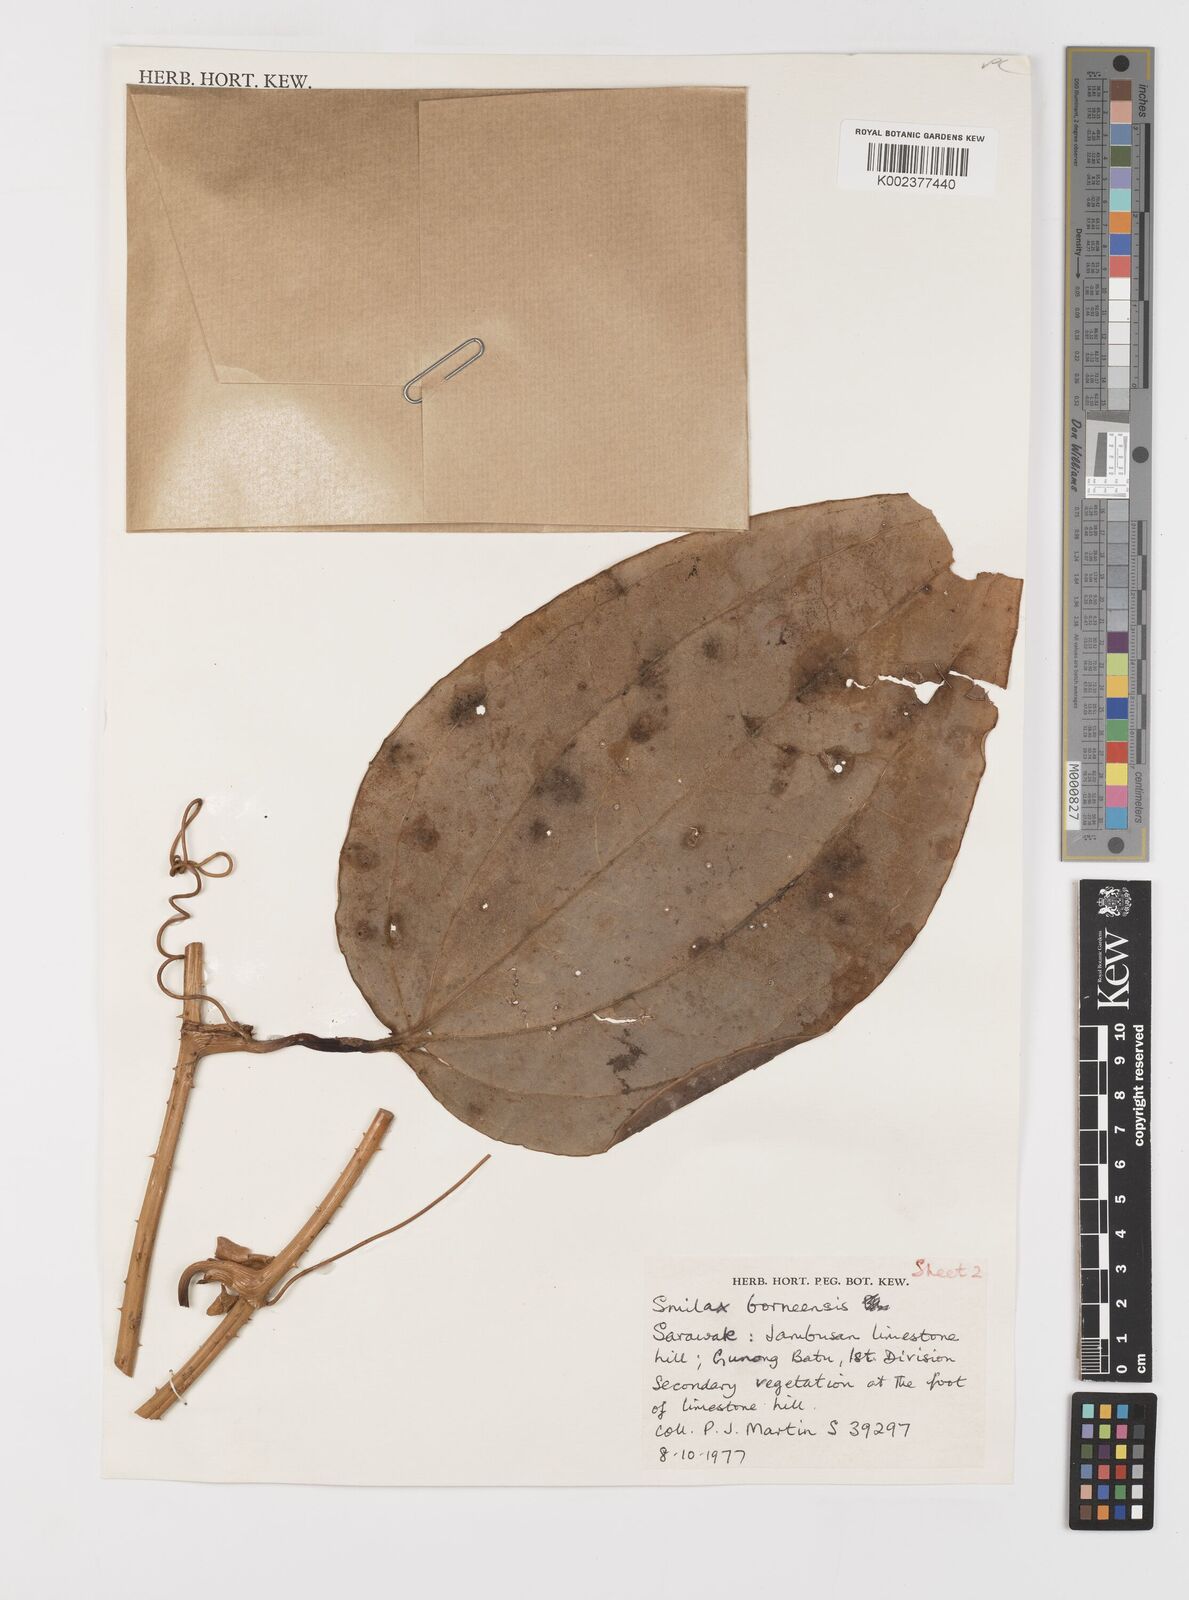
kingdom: Plantae
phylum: Tracheophyta
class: Liliopsida
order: Liliales
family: Smilacaceae
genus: Smilax
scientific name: Smilax borneensis
